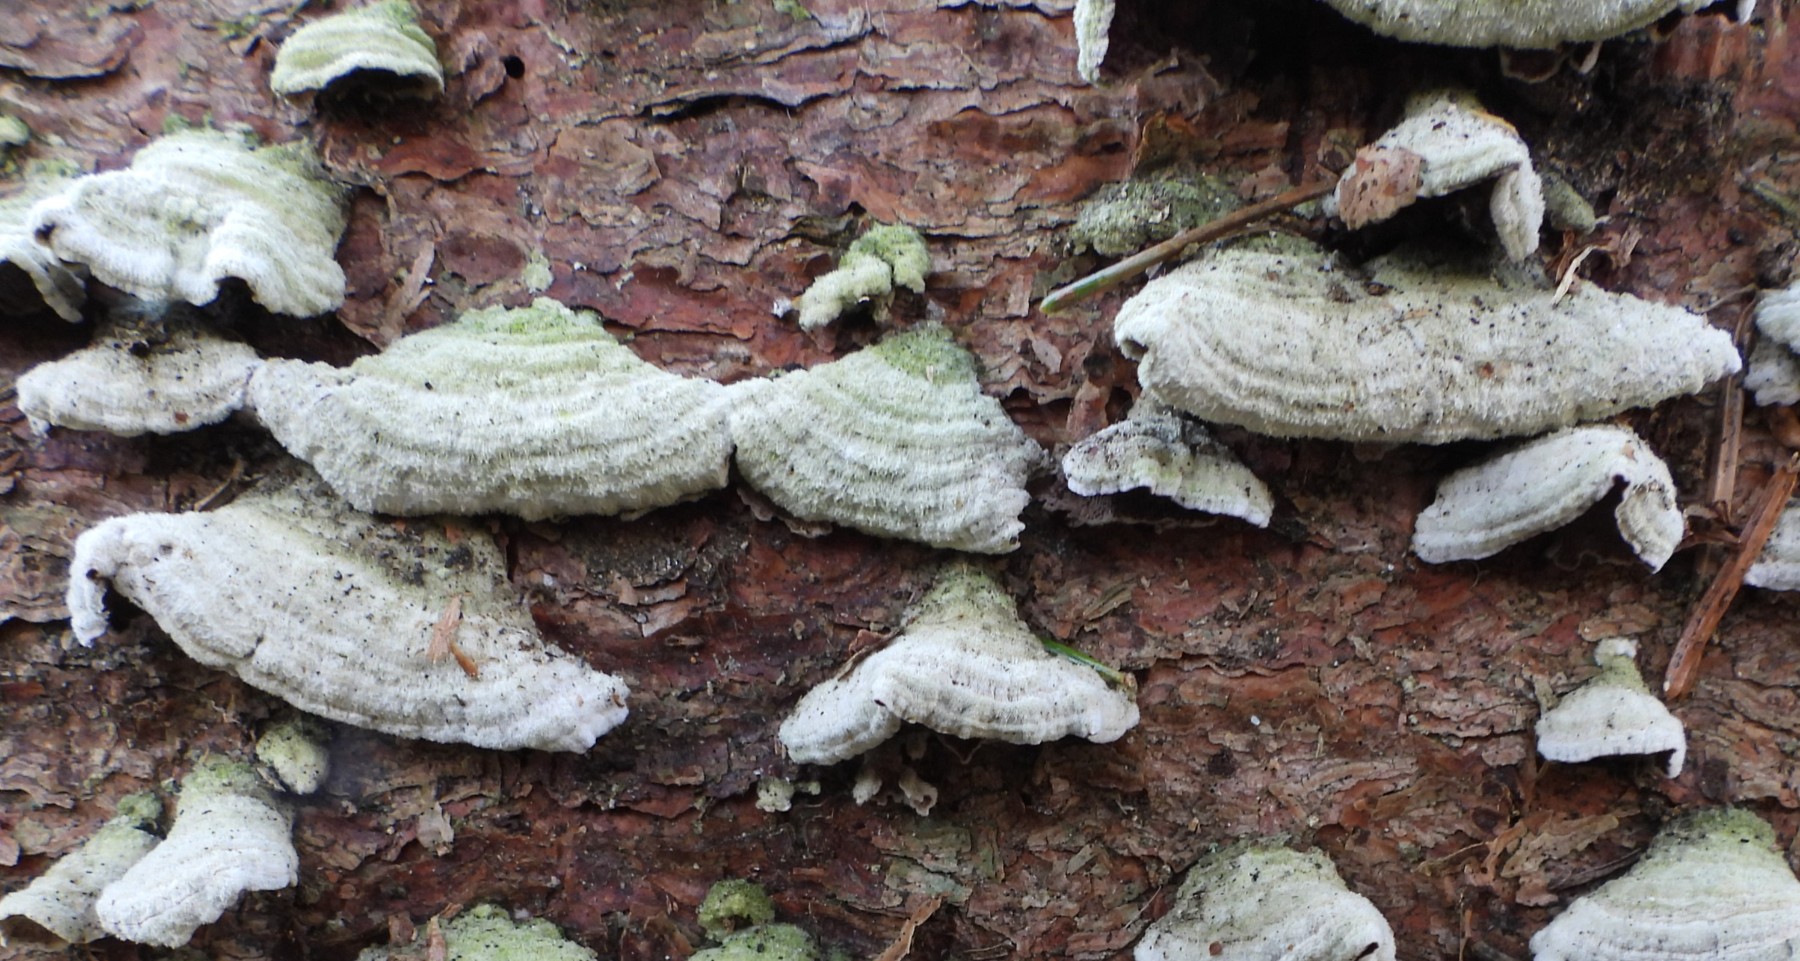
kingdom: Fungi
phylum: Basidiomycota
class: Agaricomycetes
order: Hymenochaetales
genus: Trichaptum
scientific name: Trichaptum fuscoviolaceum
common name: tandet violporesvamp
